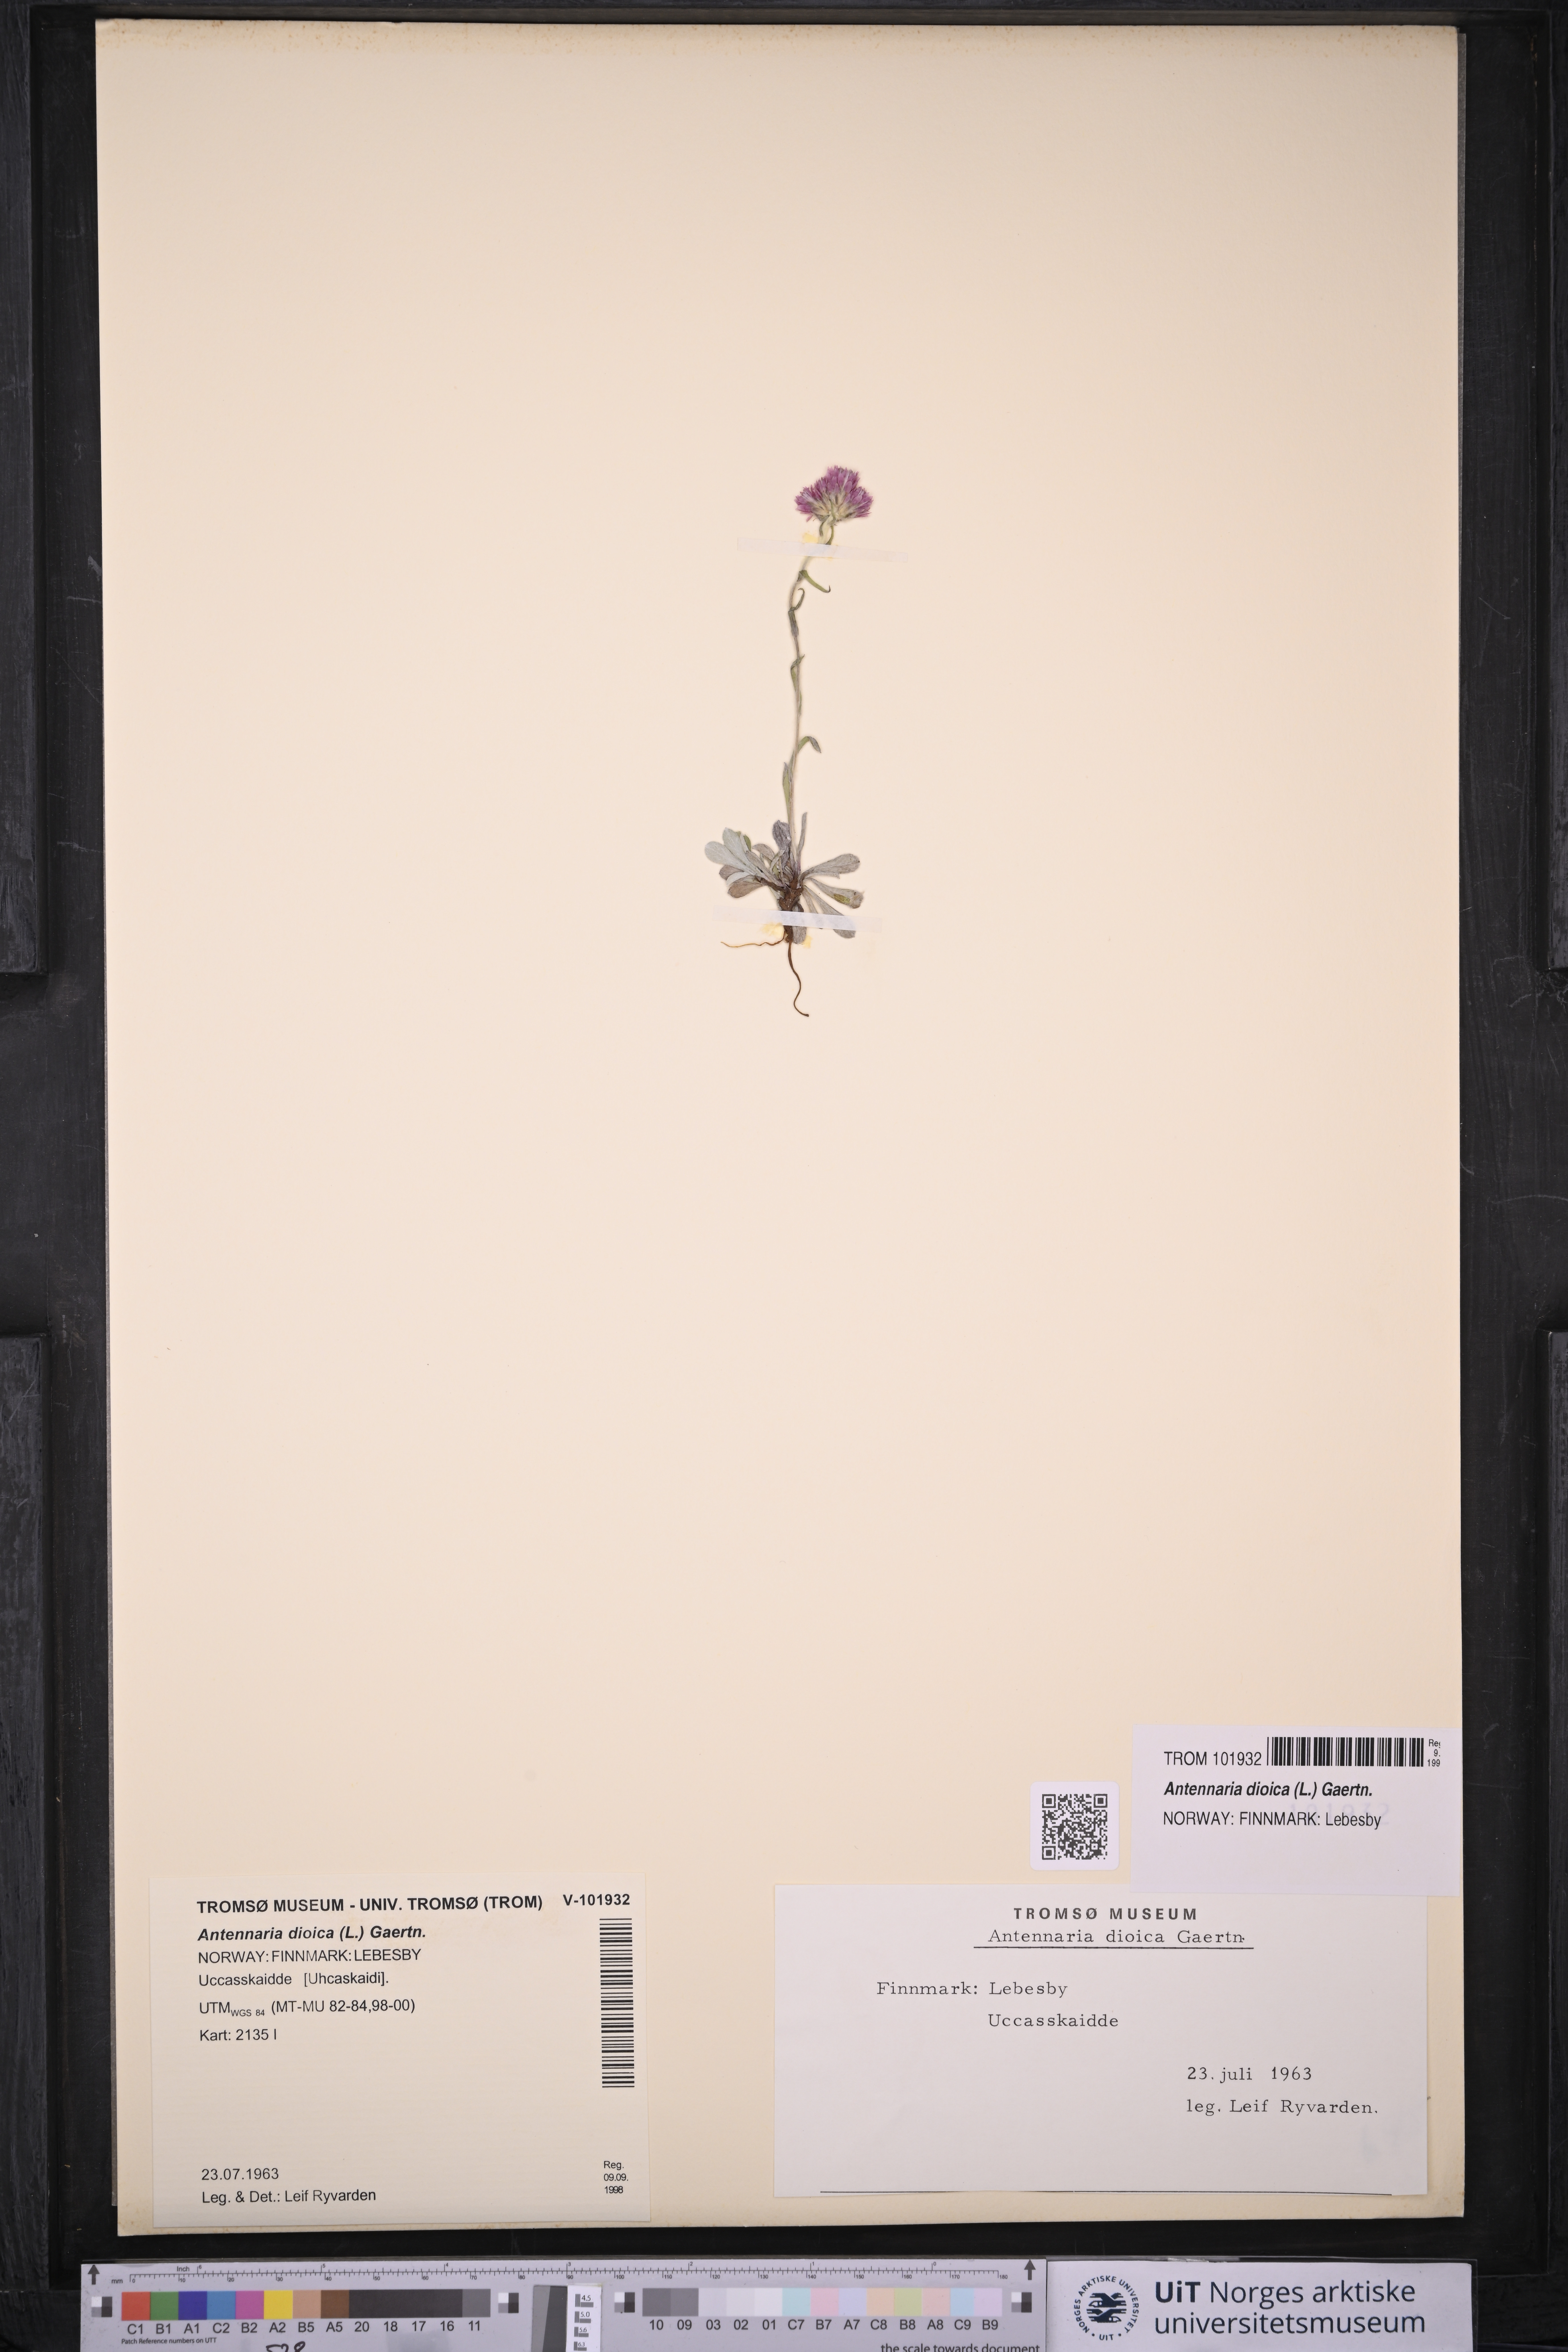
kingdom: Plantae
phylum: Tracheophyta
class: Magnoliopsida
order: Asterales
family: Asteraceae
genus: Antennaria
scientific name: Antennaria dioica
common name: Mountain everlasting
